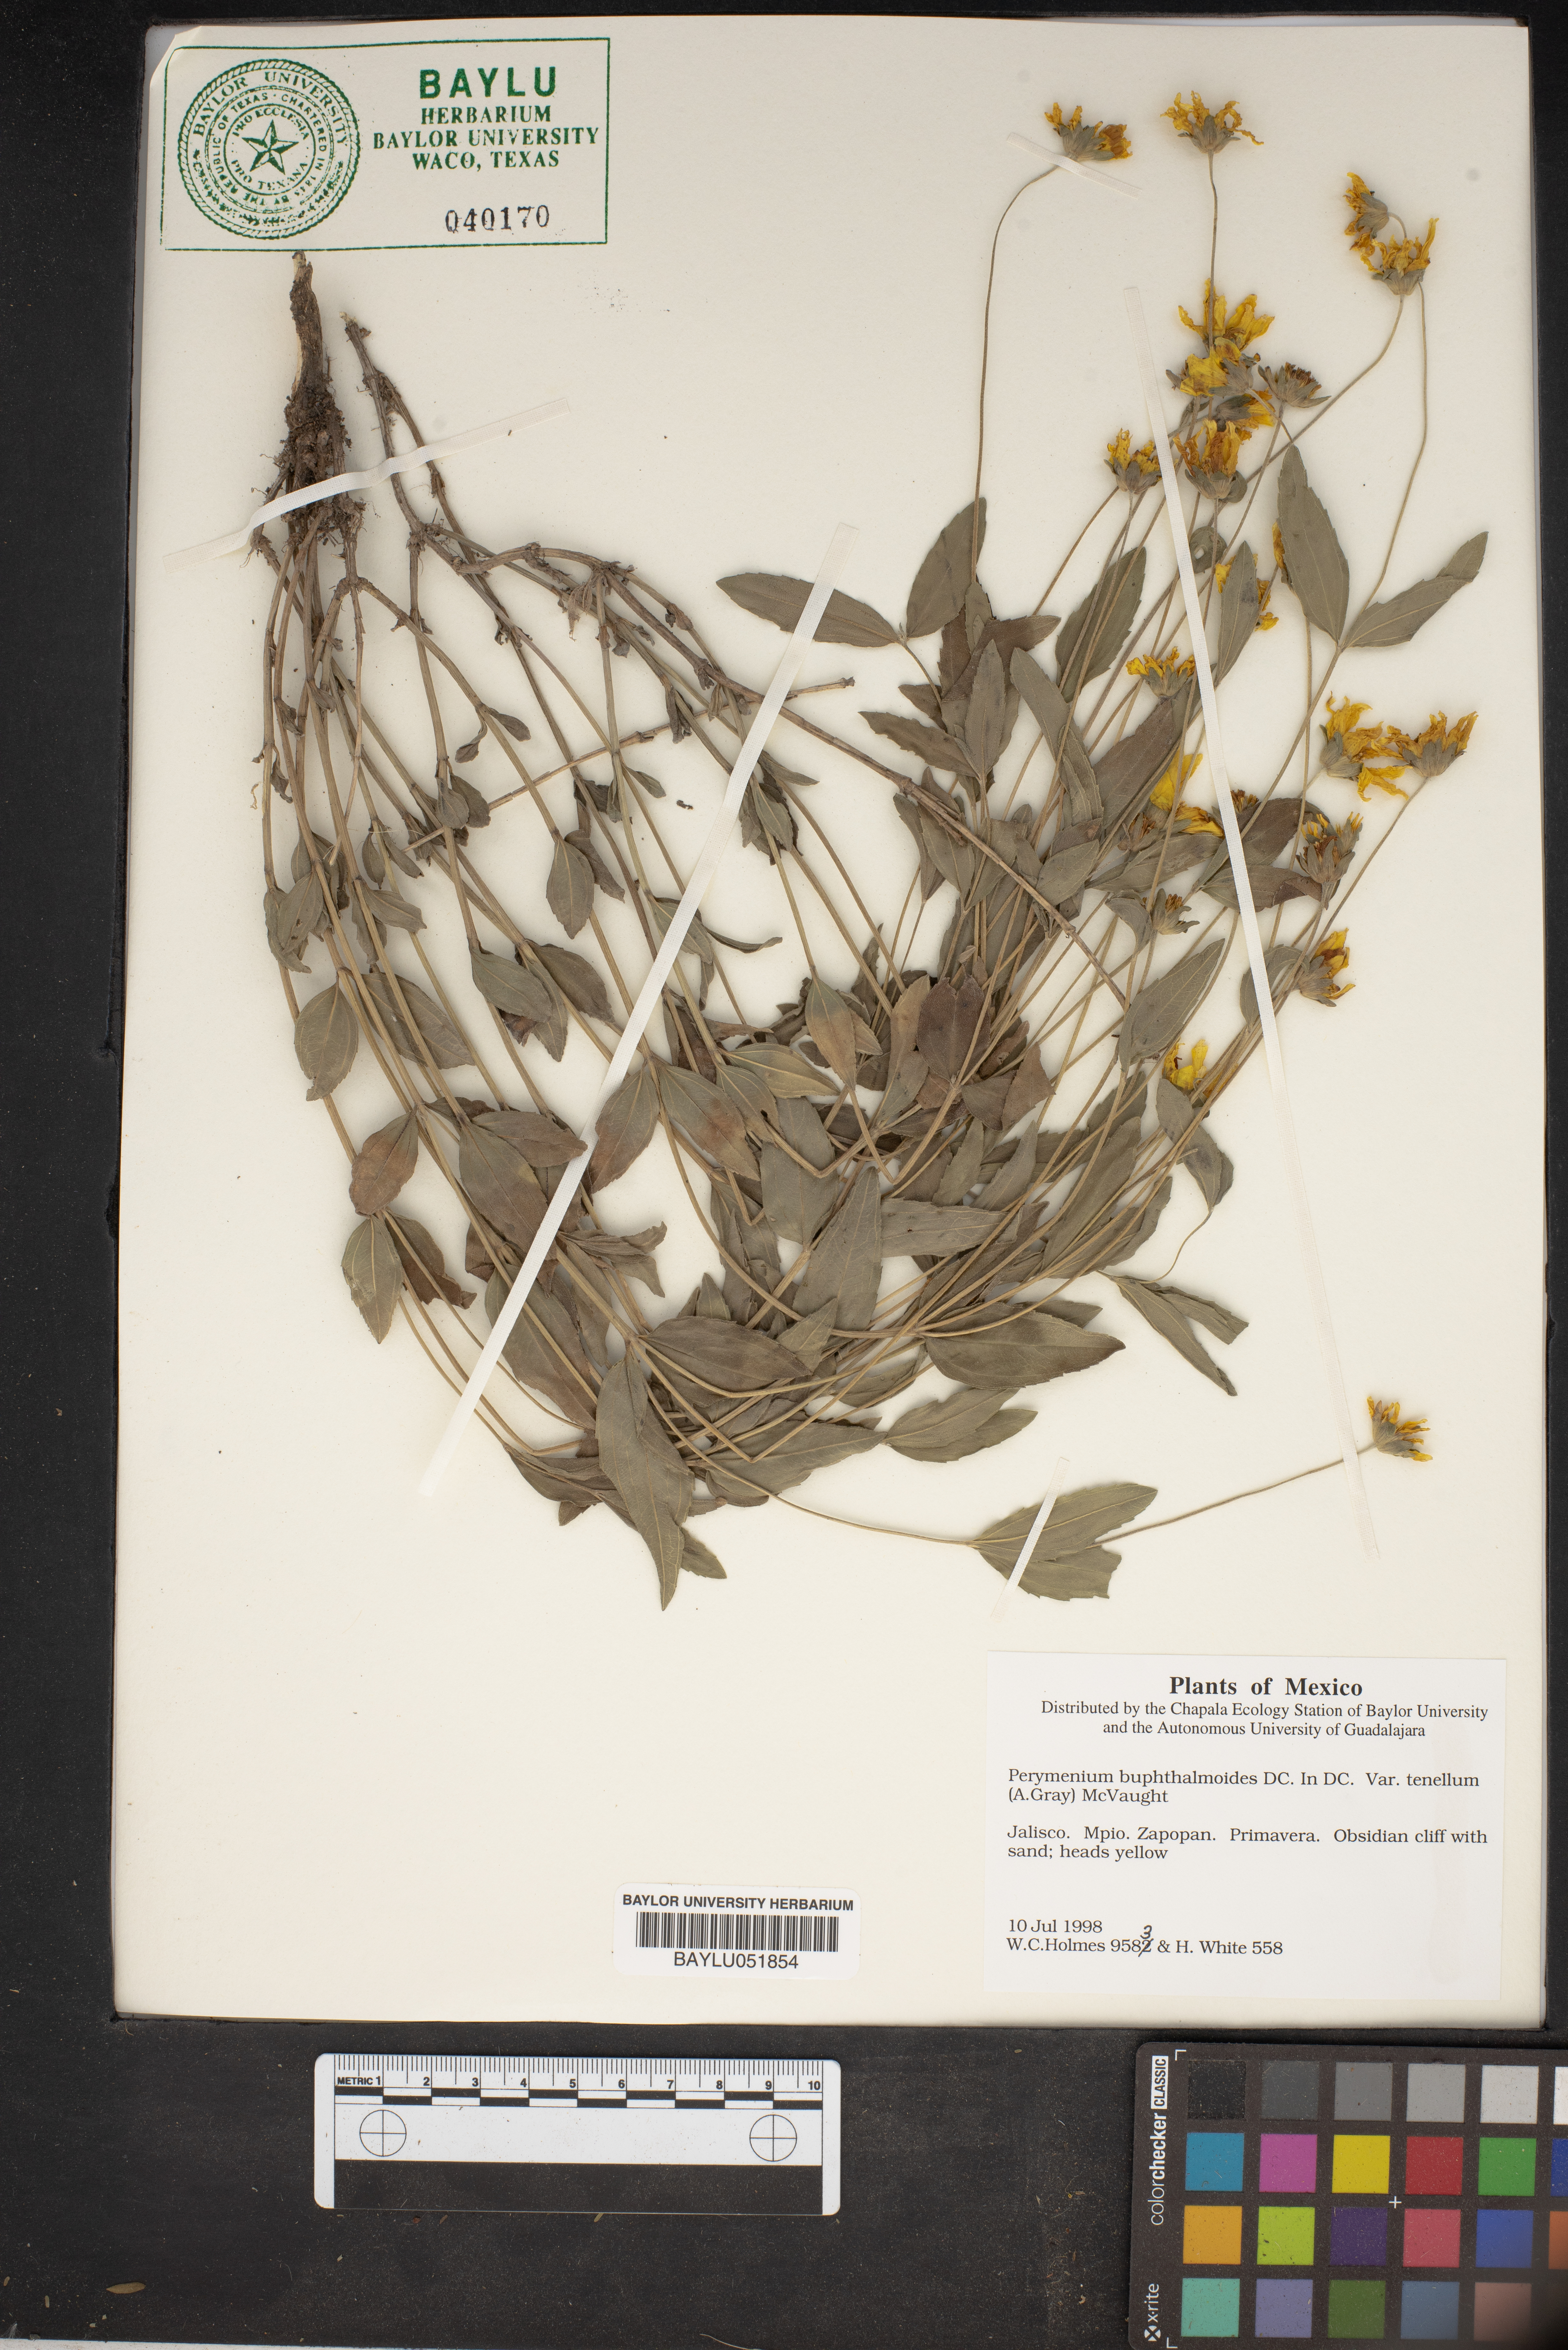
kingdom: Plantae
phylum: Tracheophyta
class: Magnoliopsida
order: Asterales
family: Asteraceae
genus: Perymenium
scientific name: Perymenium buphthalmoides
